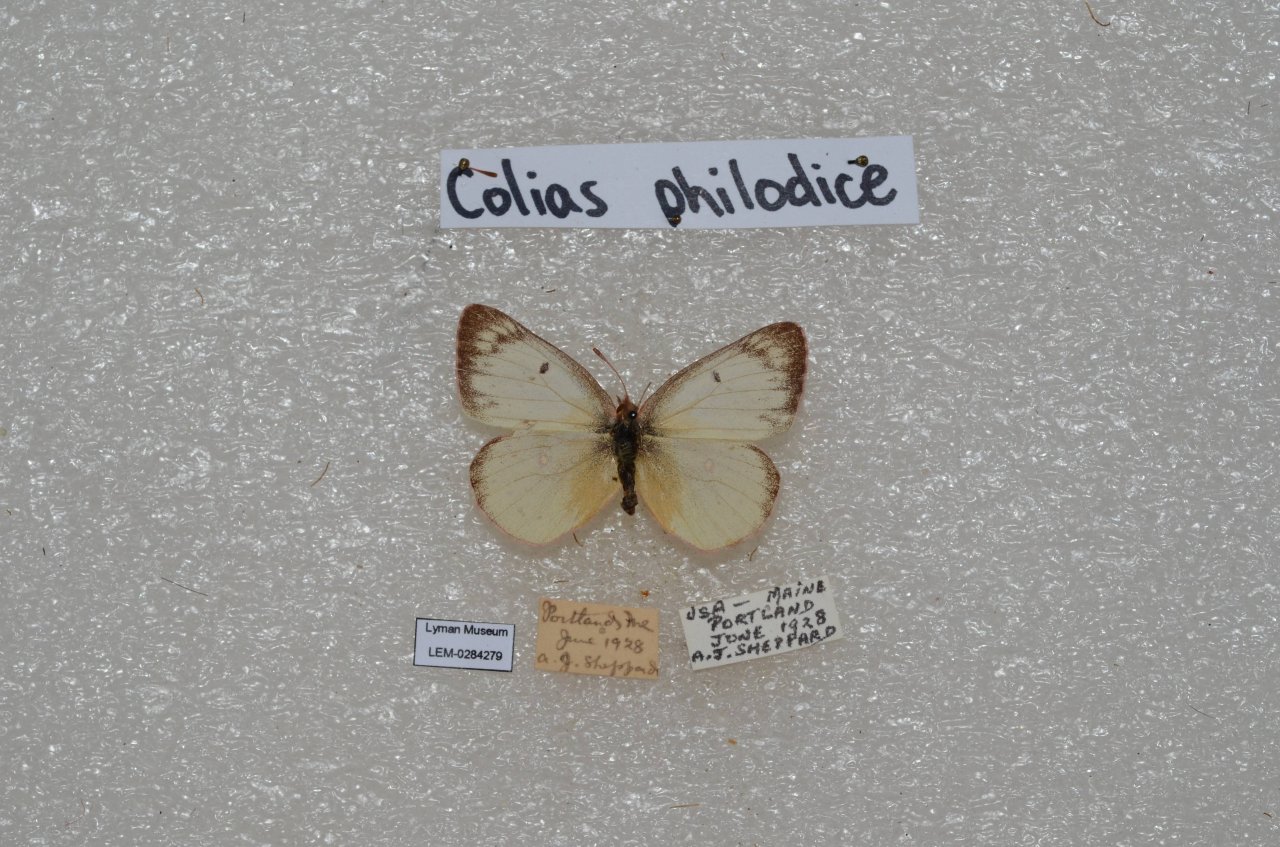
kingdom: Animalia
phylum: Arthropoda
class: Insecta
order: Lepidoptera
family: Pieridae
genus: Colias
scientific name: Colias philodice
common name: Clouded Sulphur
